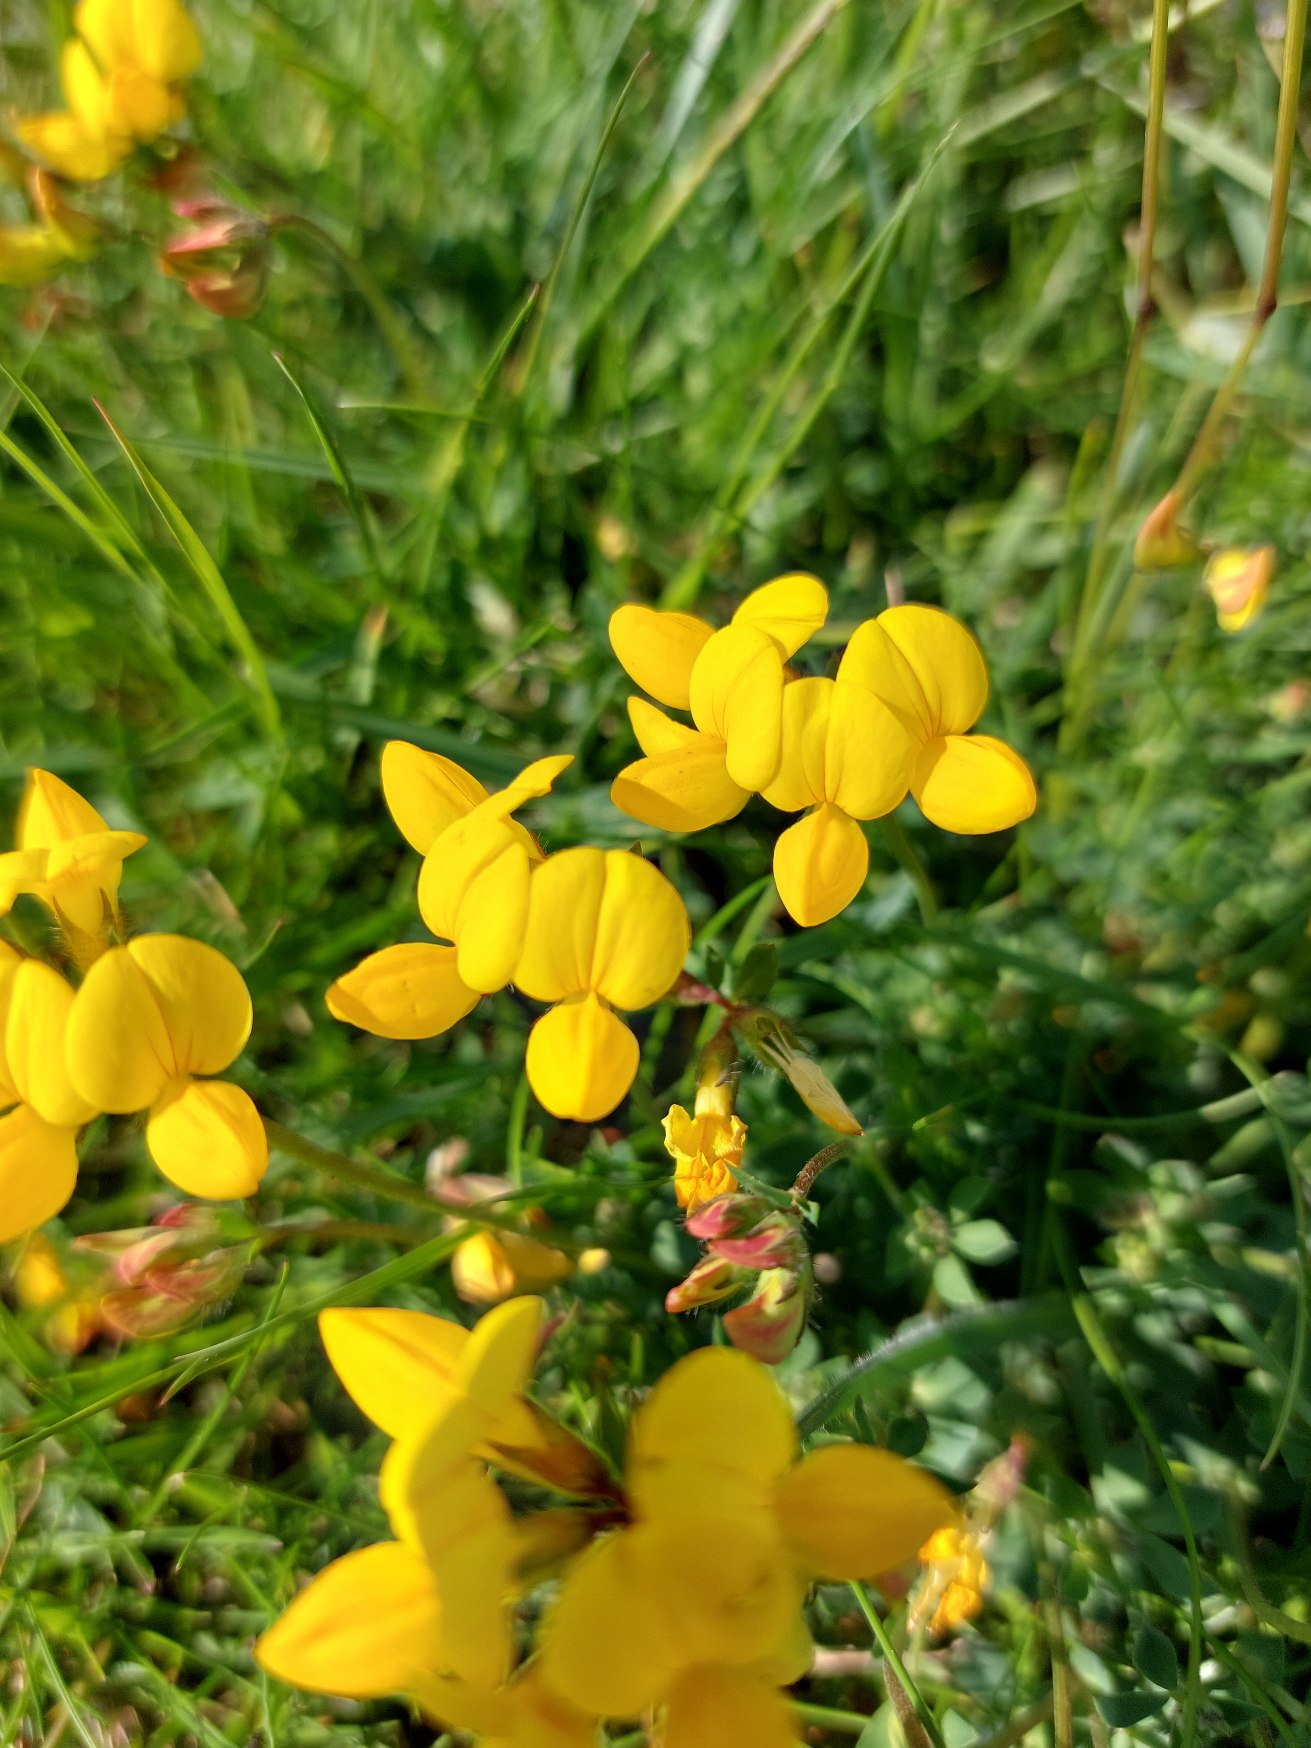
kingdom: Plantae
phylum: Tracheophyta
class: Magnoliopsida
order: Fabales
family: Fabaceae
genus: Lotus
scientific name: Lotus corniculatus
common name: Almindelig kællingetand
